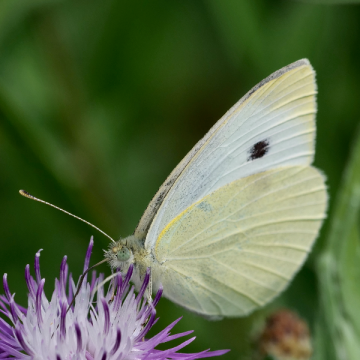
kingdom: Animalia
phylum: Arthropoda
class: Insecta
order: Lepidoptera
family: Pieridae
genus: Pieris
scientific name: Pieris rapae
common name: Cabbage White
